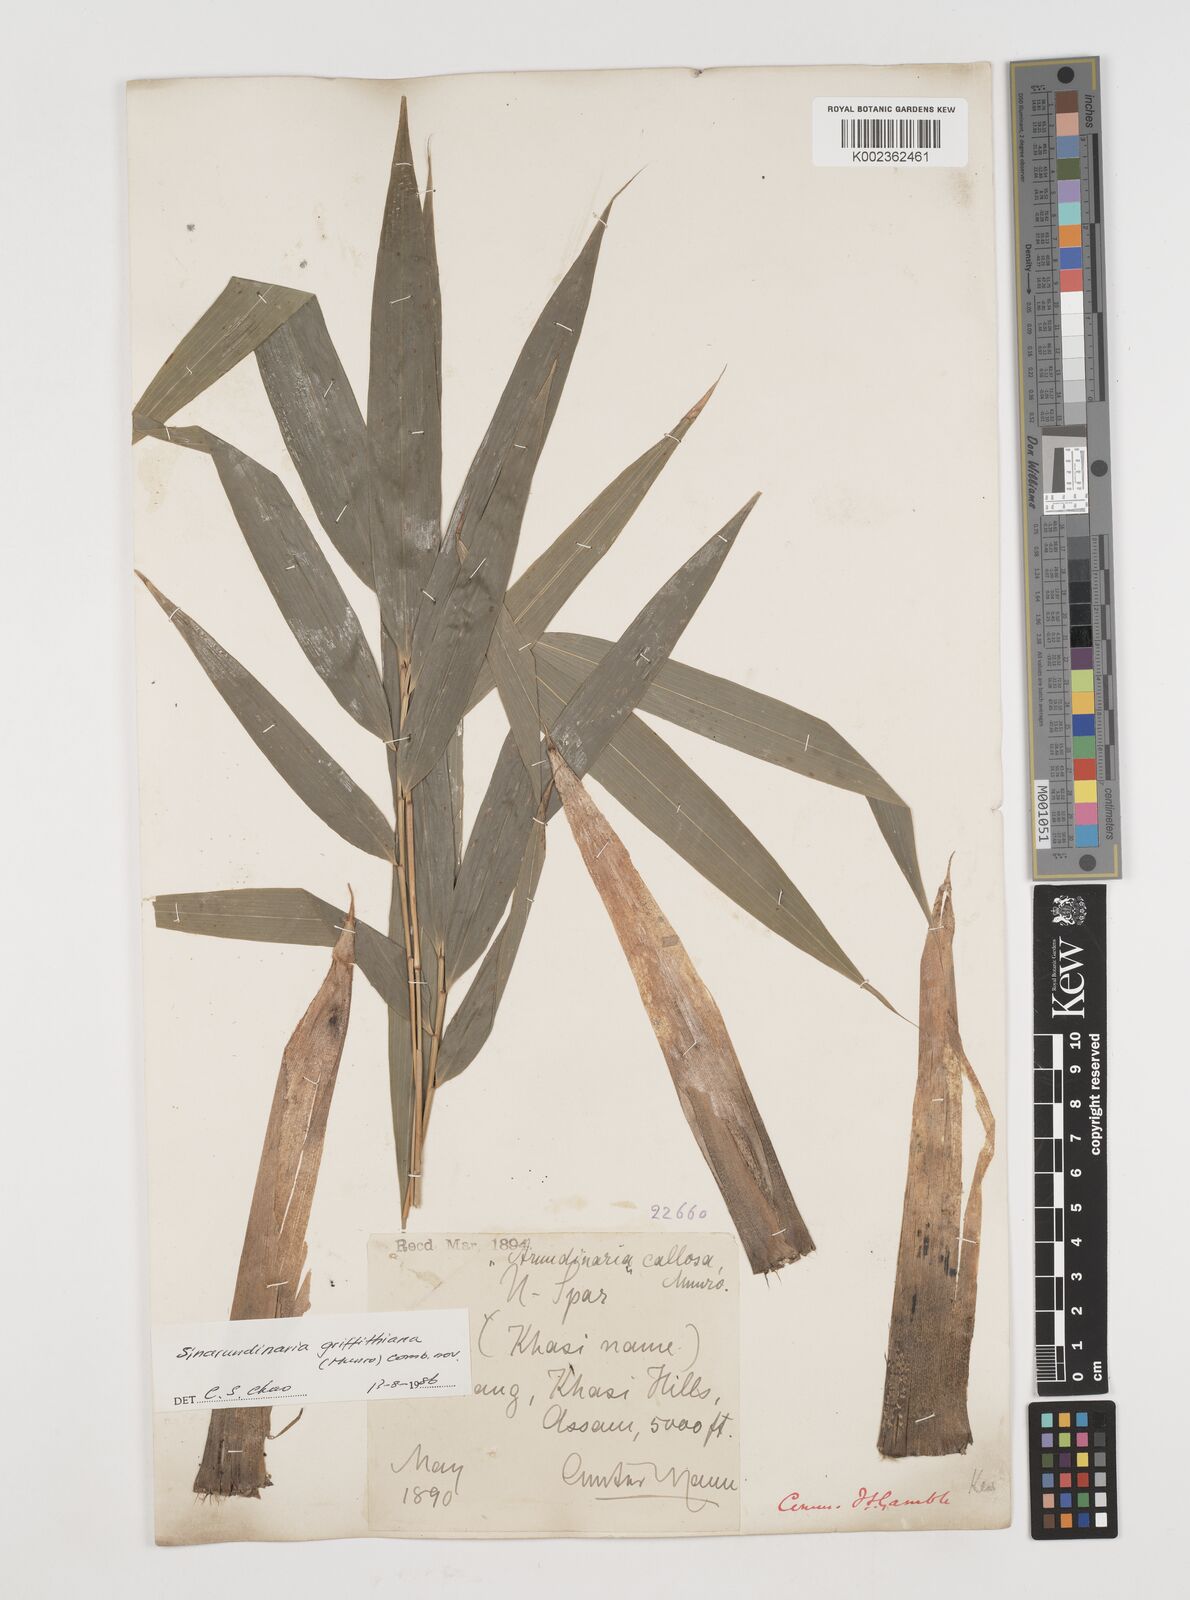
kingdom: Plantae
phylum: Tracheophyta
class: Liliopsida
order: Poales
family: Poaceae
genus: Chimonocalamus
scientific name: Chimonocalamus griffithianus
